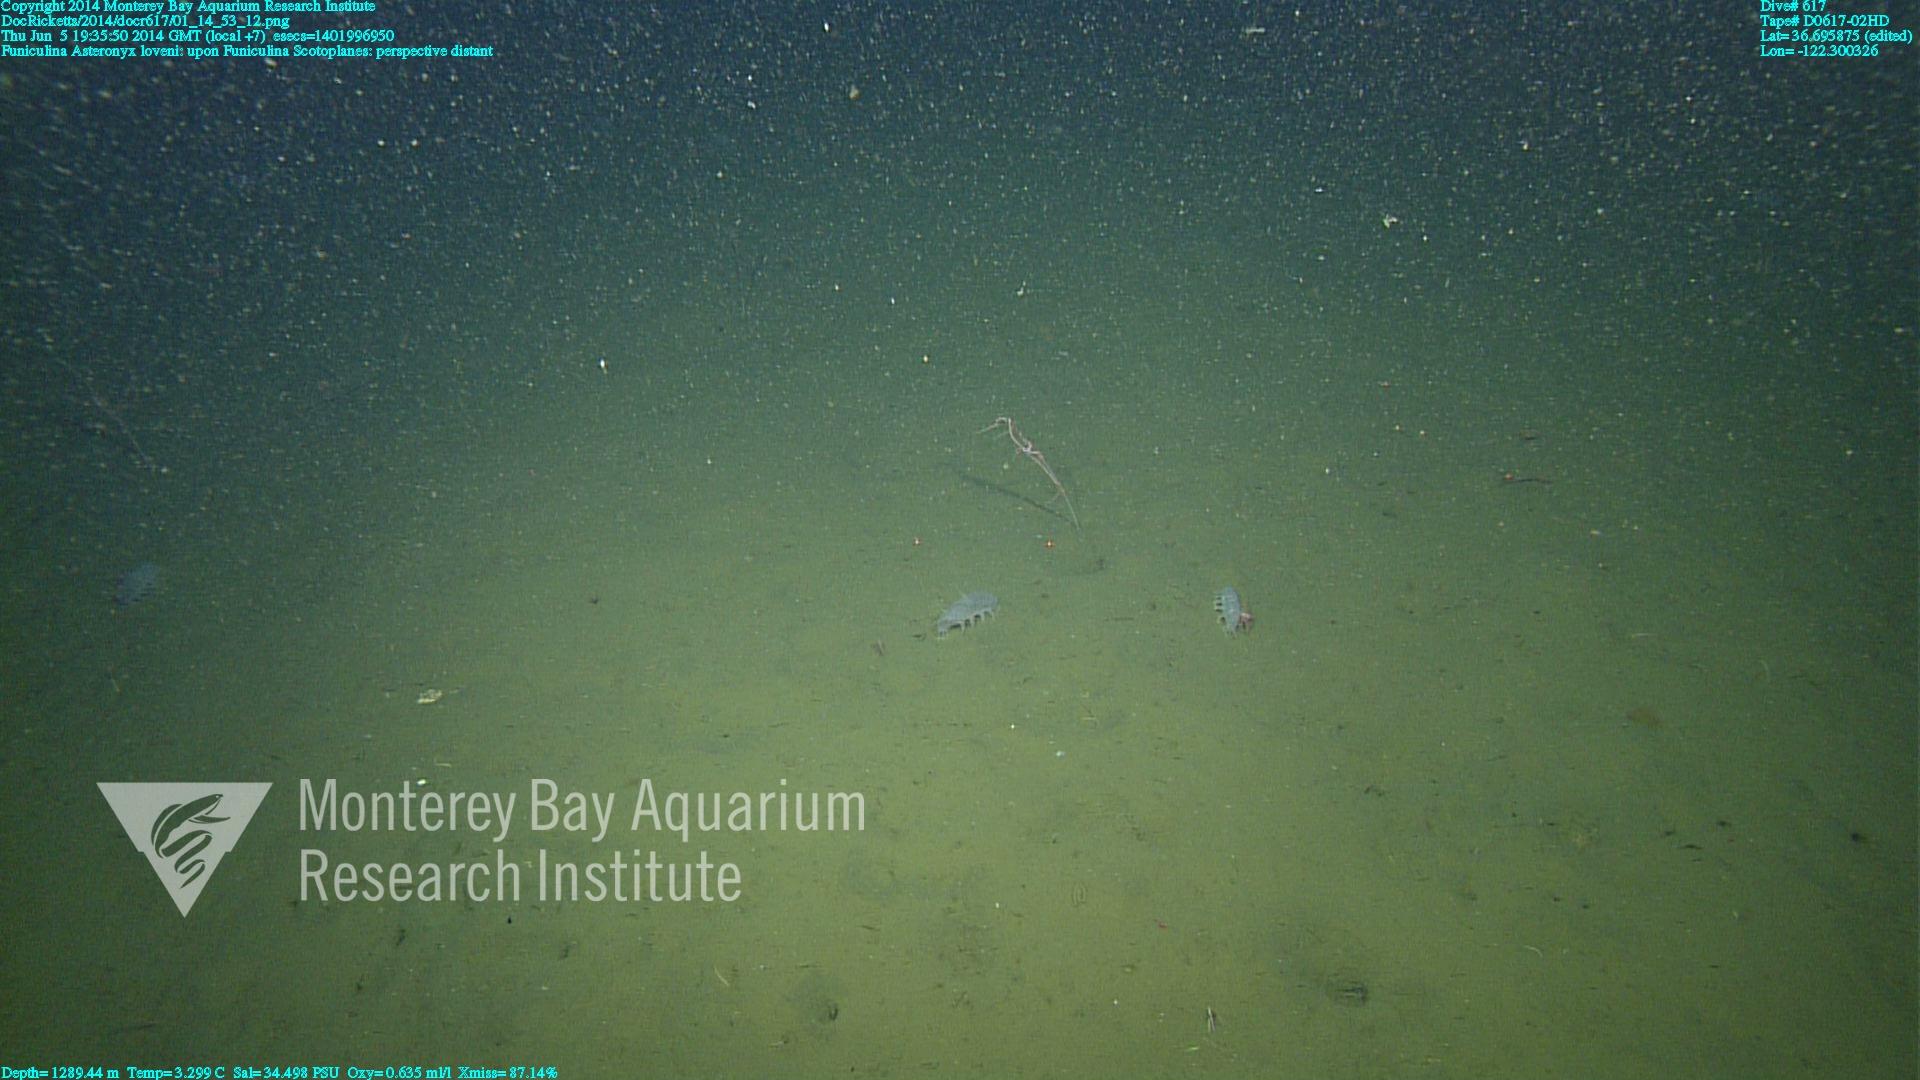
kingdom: Animalia
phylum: Cnidaria
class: Anthozoa
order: Scleralcyonacea
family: Funiculinidae
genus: Funiculina
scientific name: Funiculina
